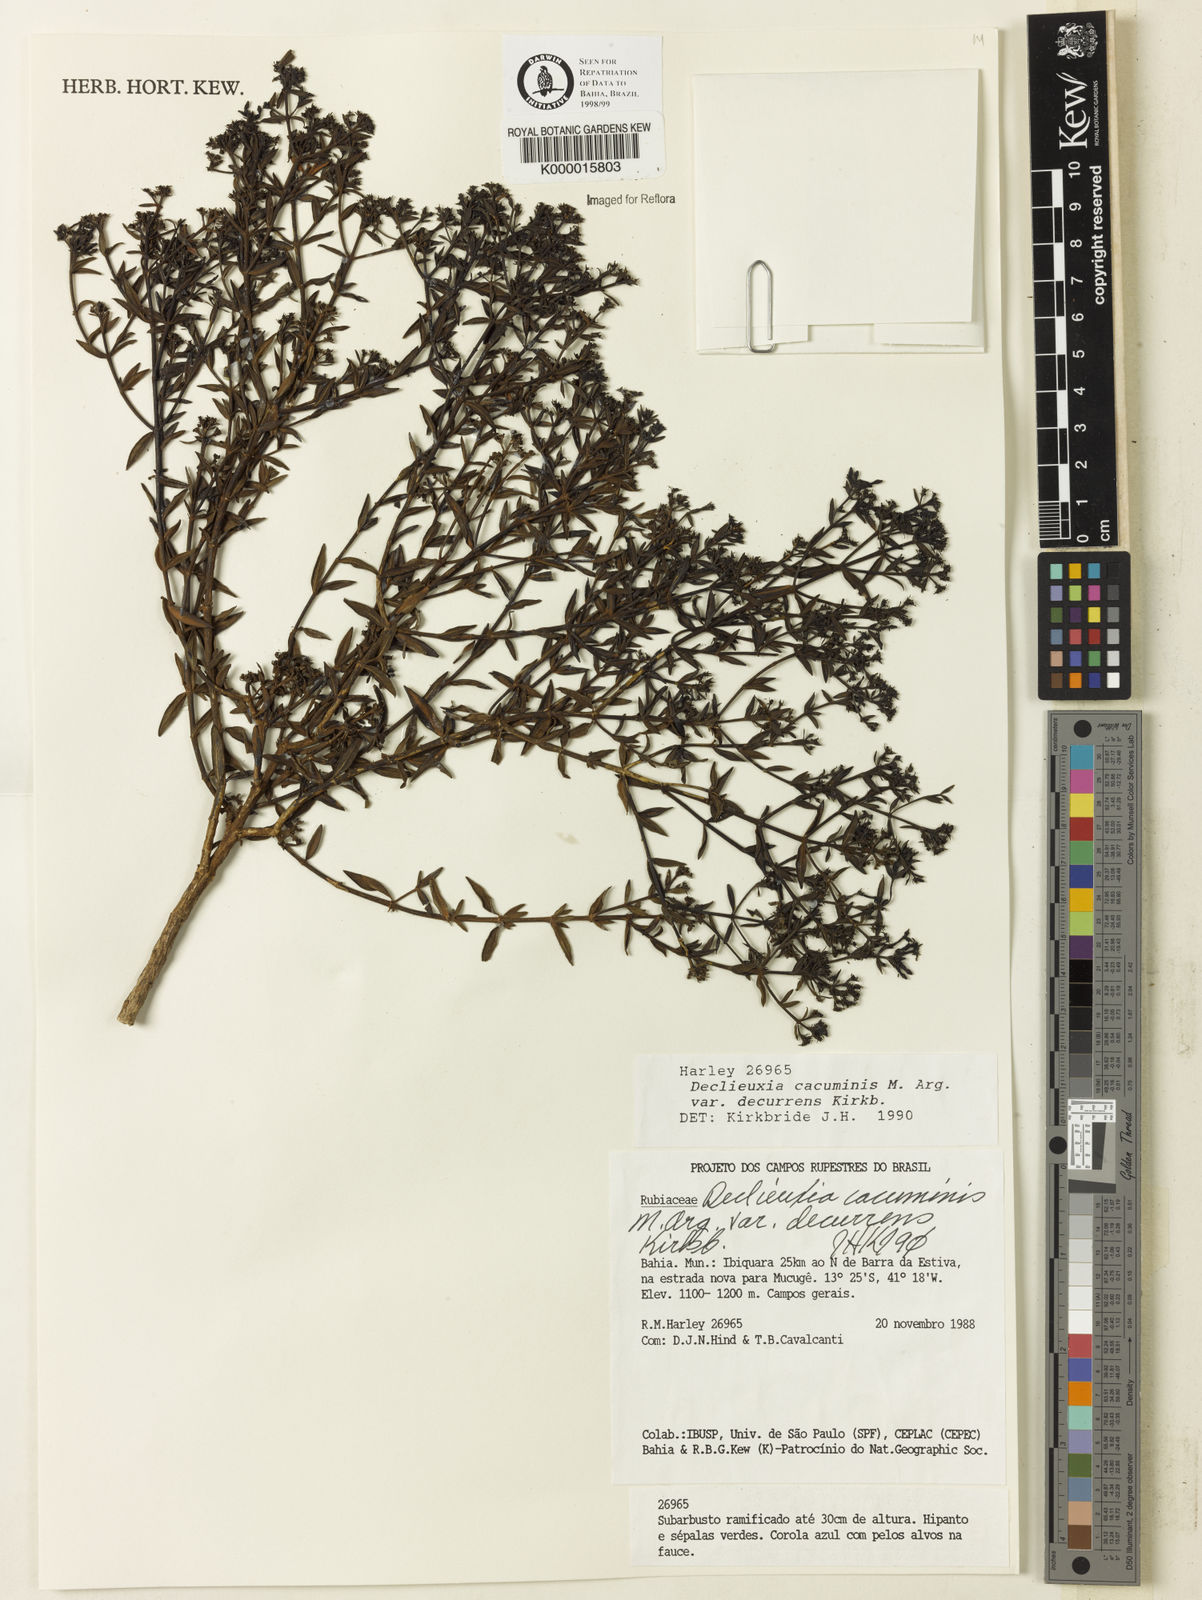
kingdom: Plantae
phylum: Tracheophyta
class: Magnoliopsida
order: Gentianales
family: Rubiaceae
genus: Declieuxia
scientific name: Declieuxia cacuminis
